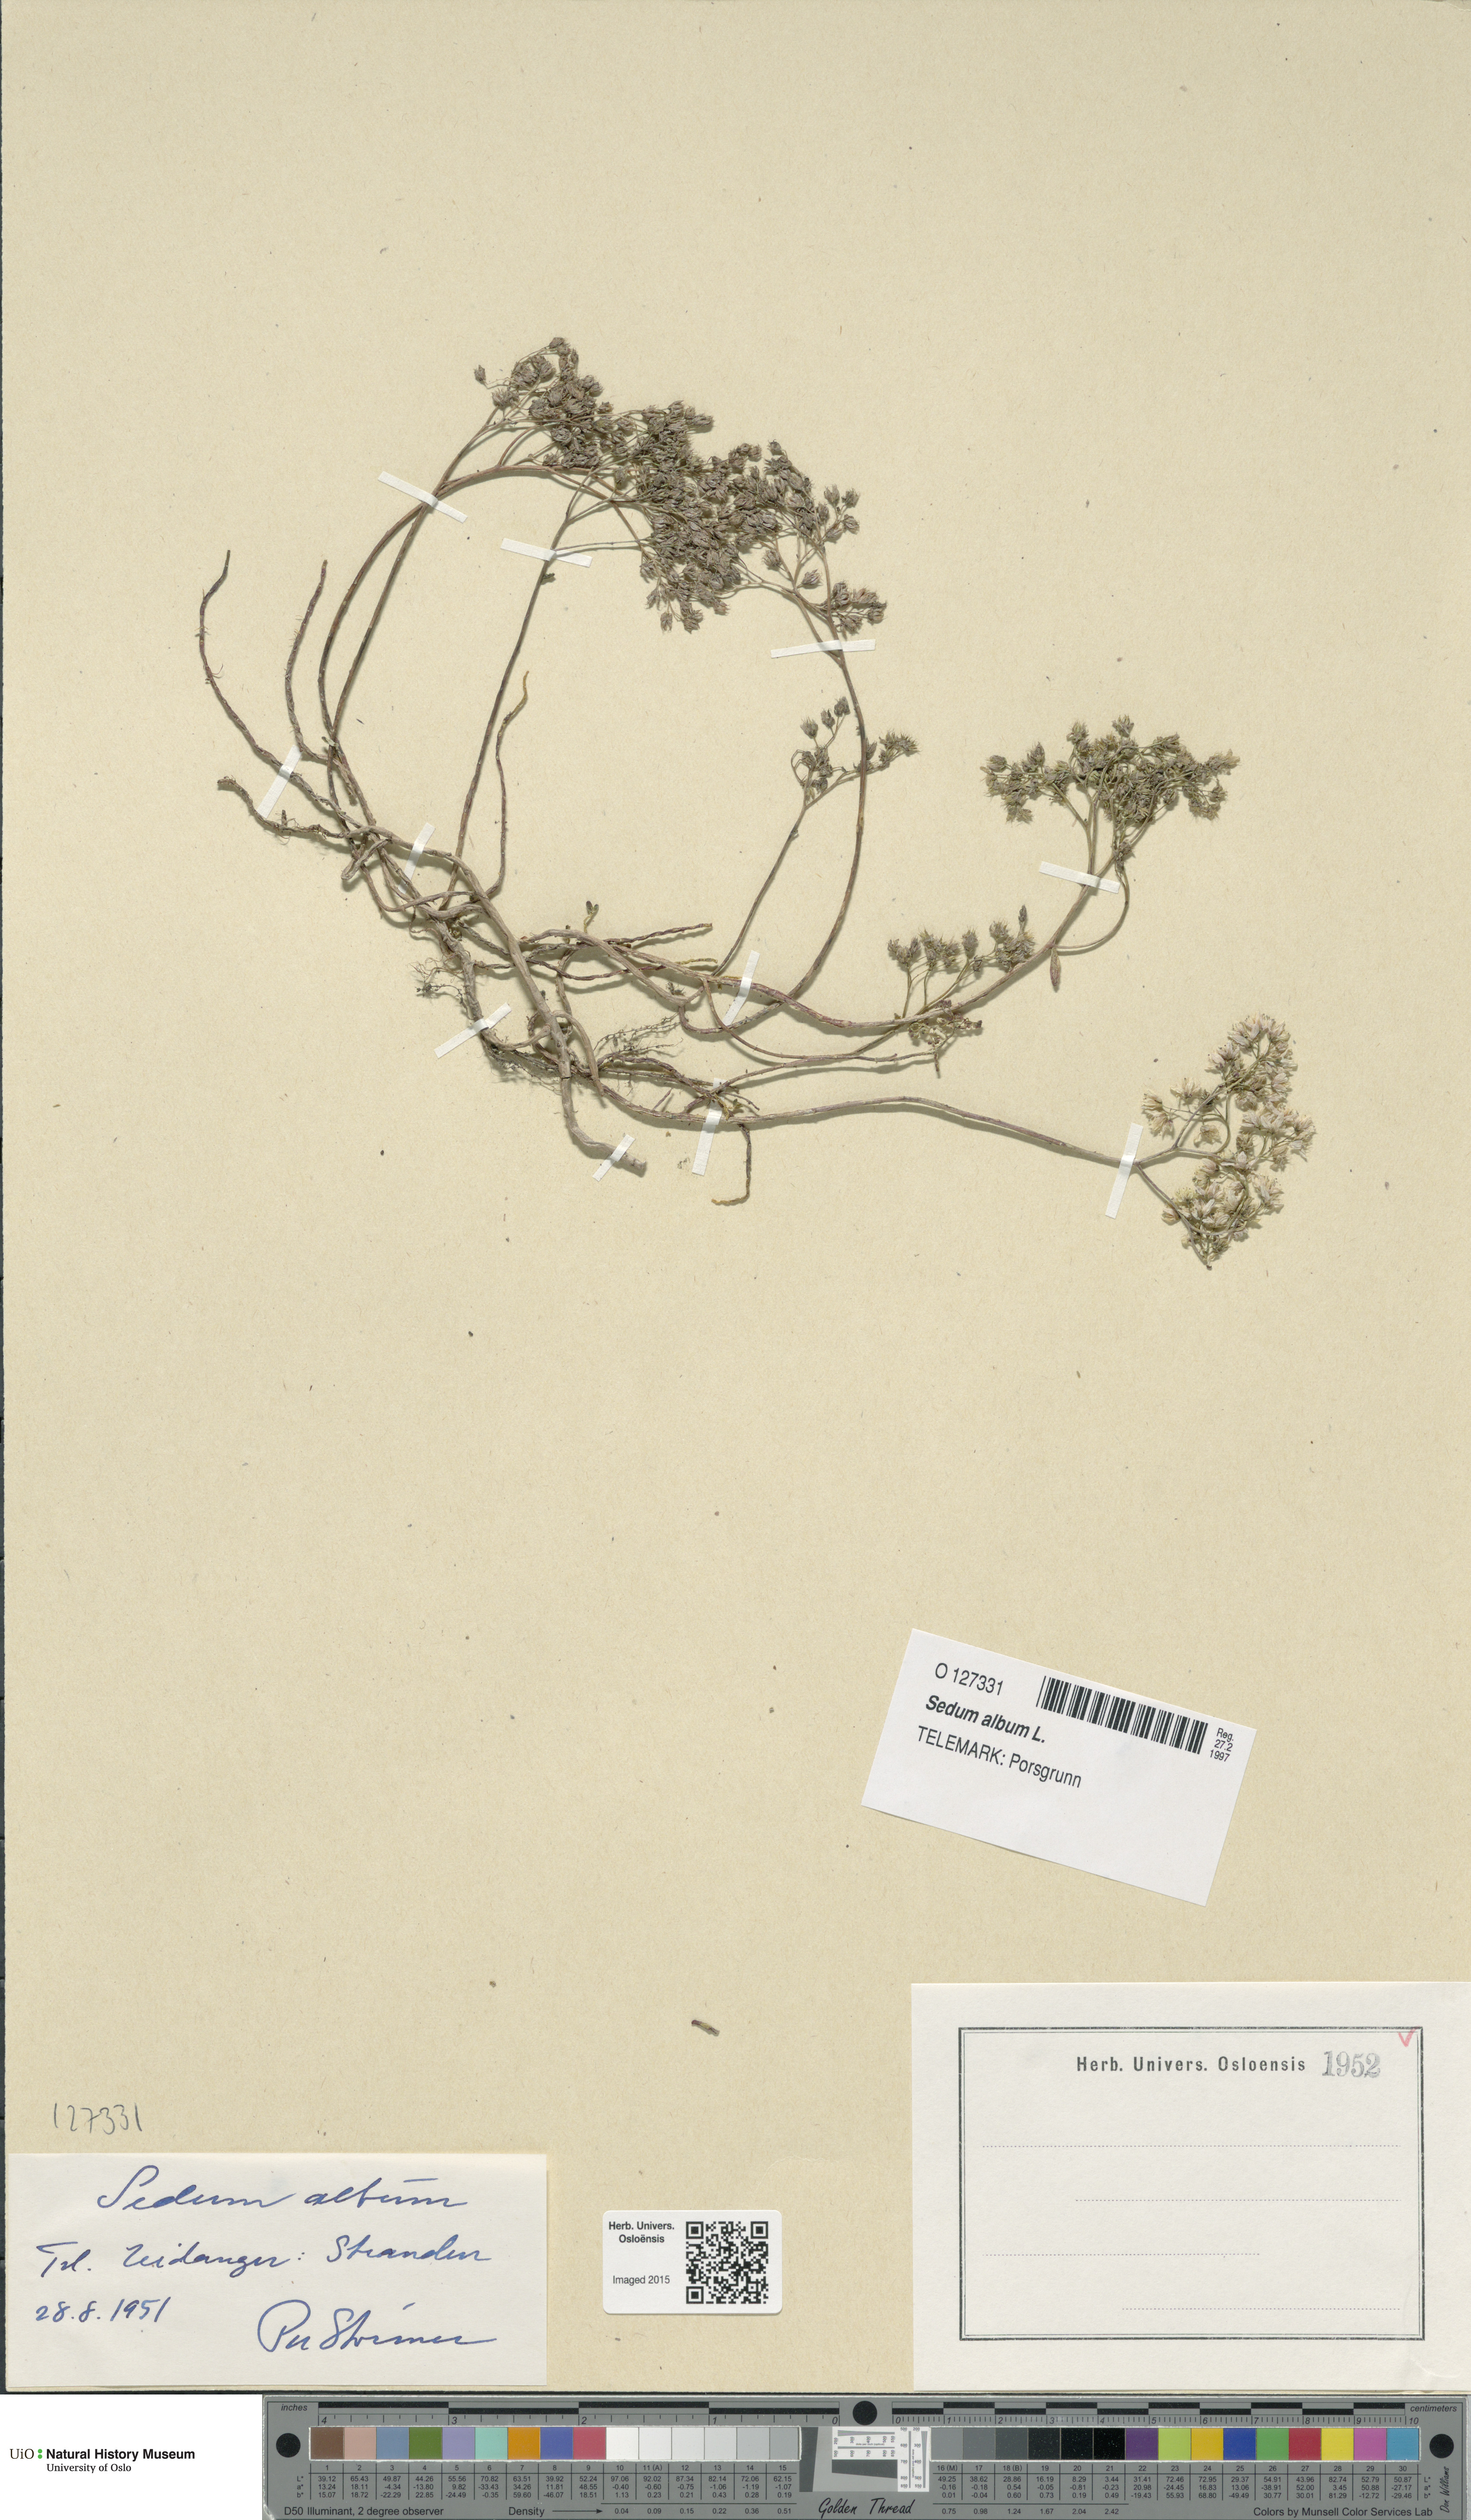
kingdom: Plantae
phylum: Tracheophyta
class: Magnoliopsida
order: Saxifragales
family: Crassulaceae
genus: Sedum
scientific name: Sedum album
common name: White stonecrop
